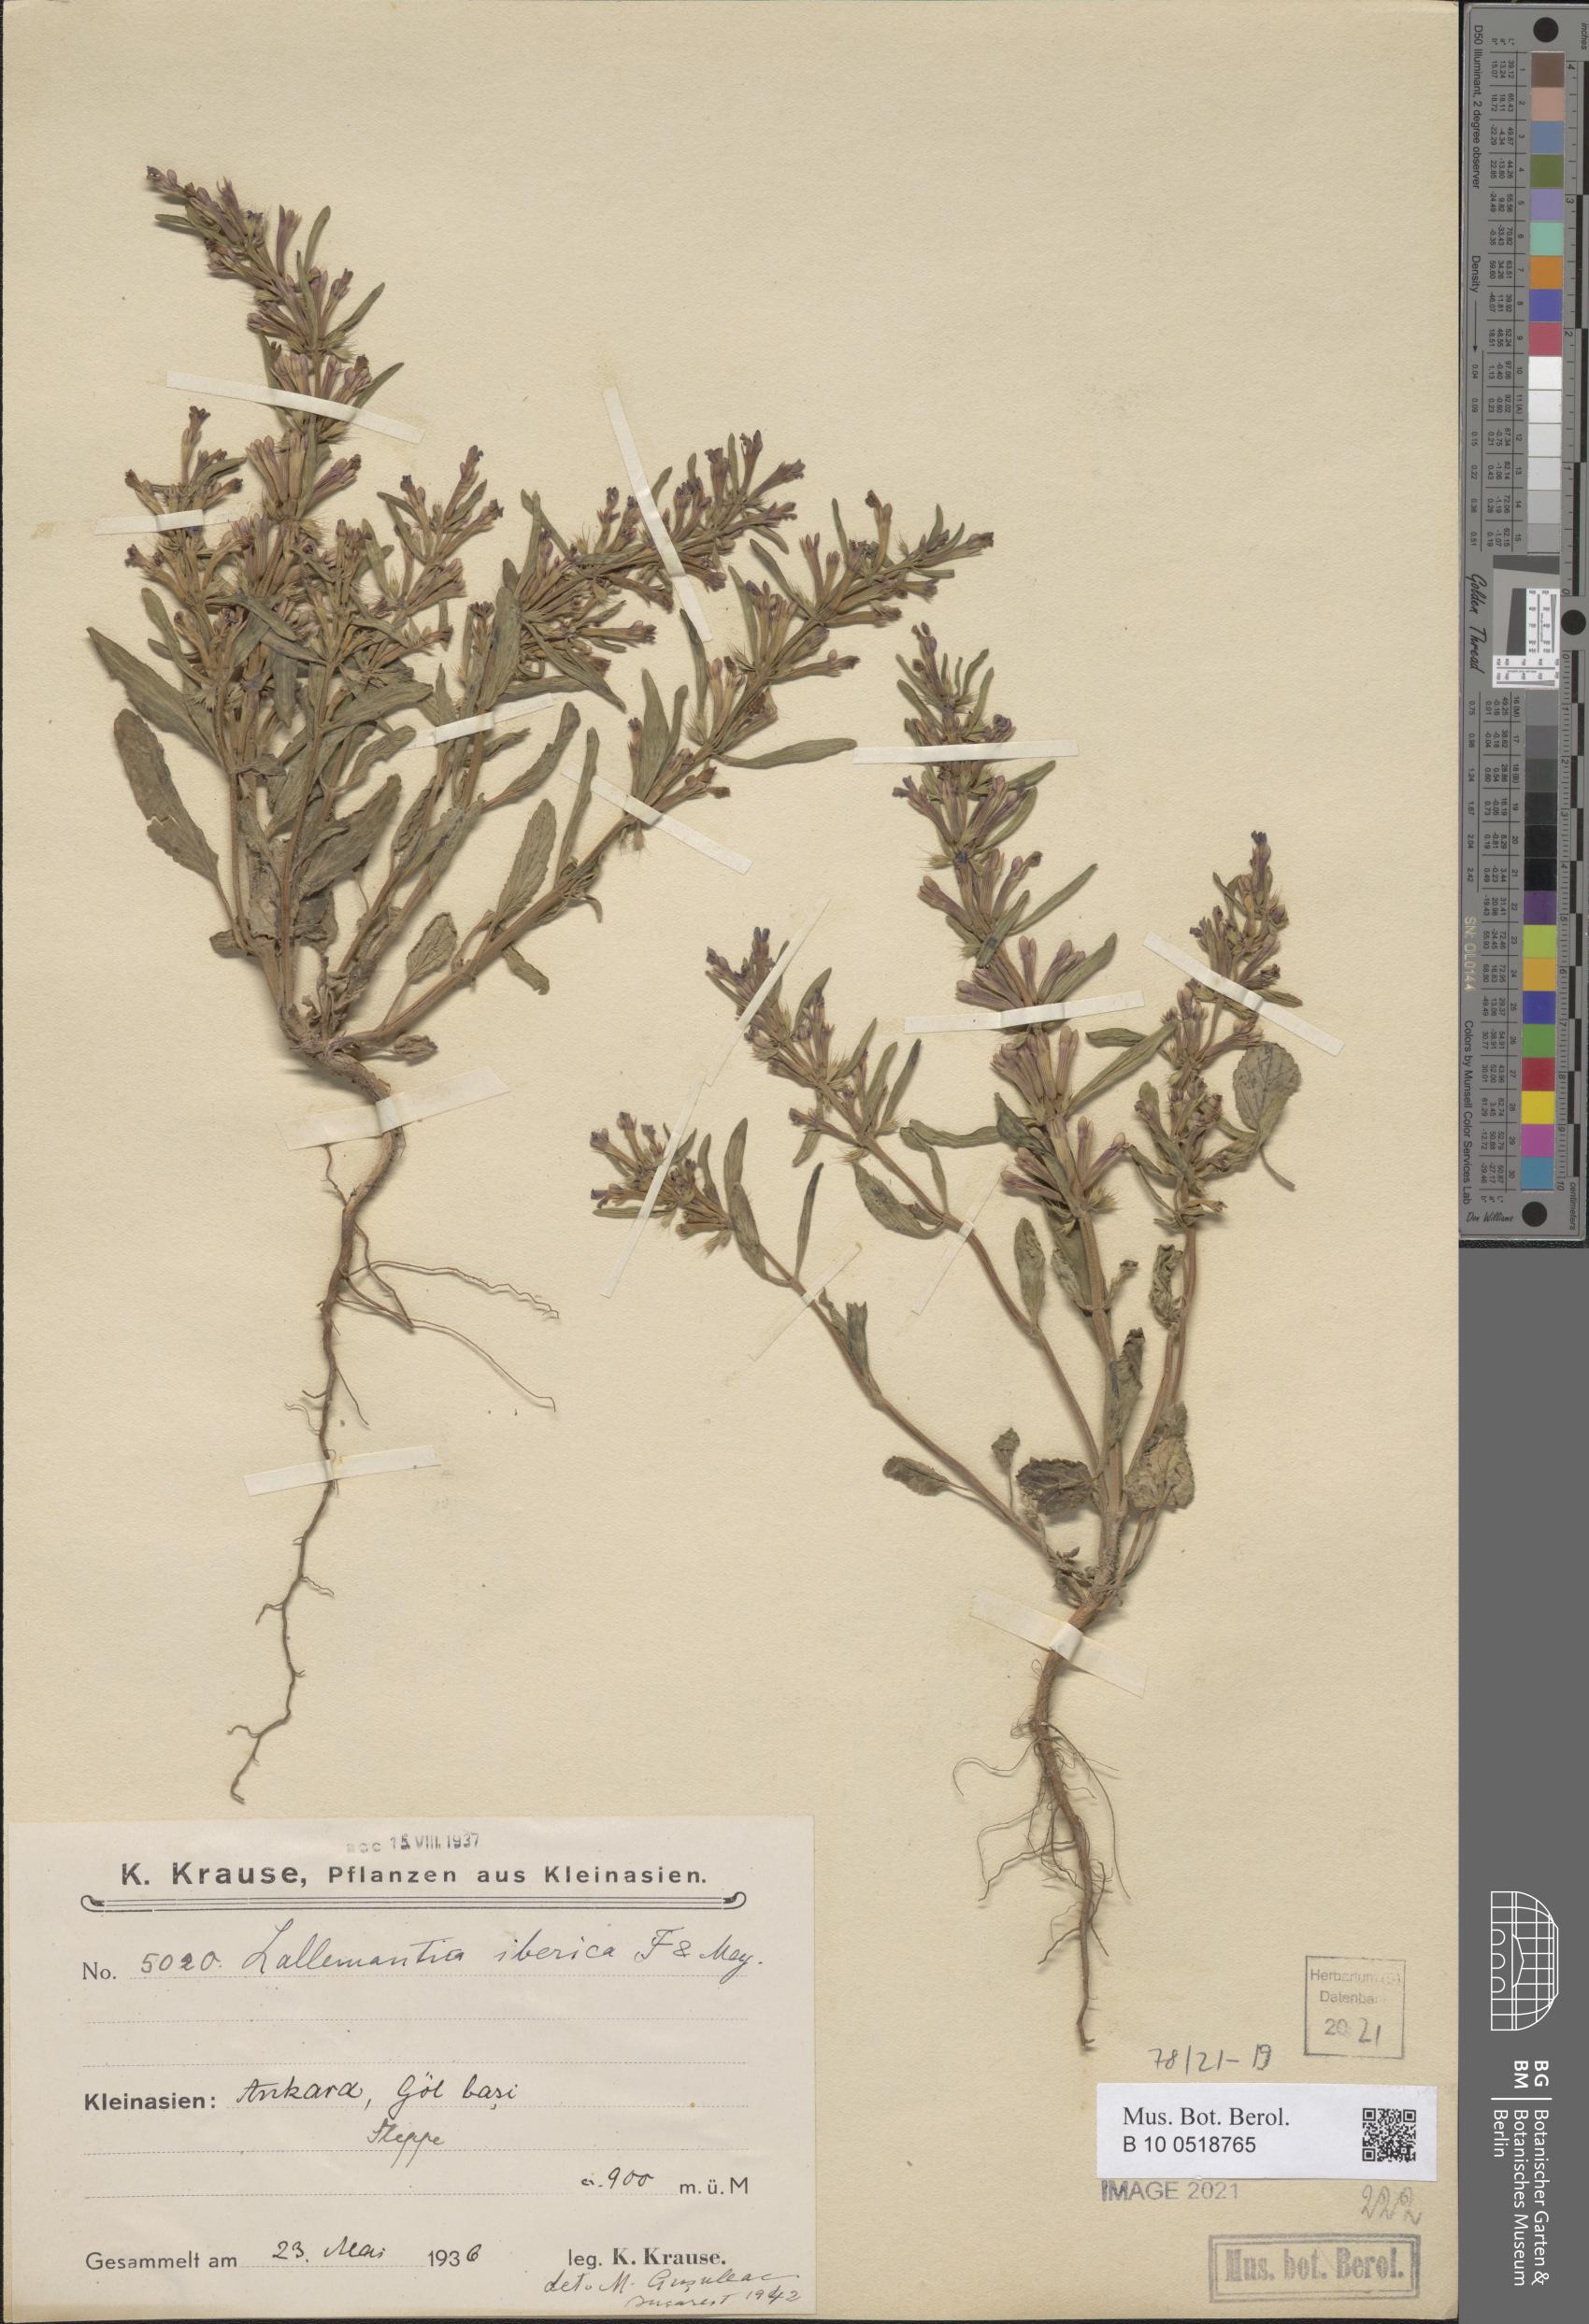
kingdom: Plantae
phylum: Tracheophyta
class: Magnoliopsida
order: Lamiales
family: Lamiaceae
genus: Lallemantia
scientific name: Lallemantia iberica
